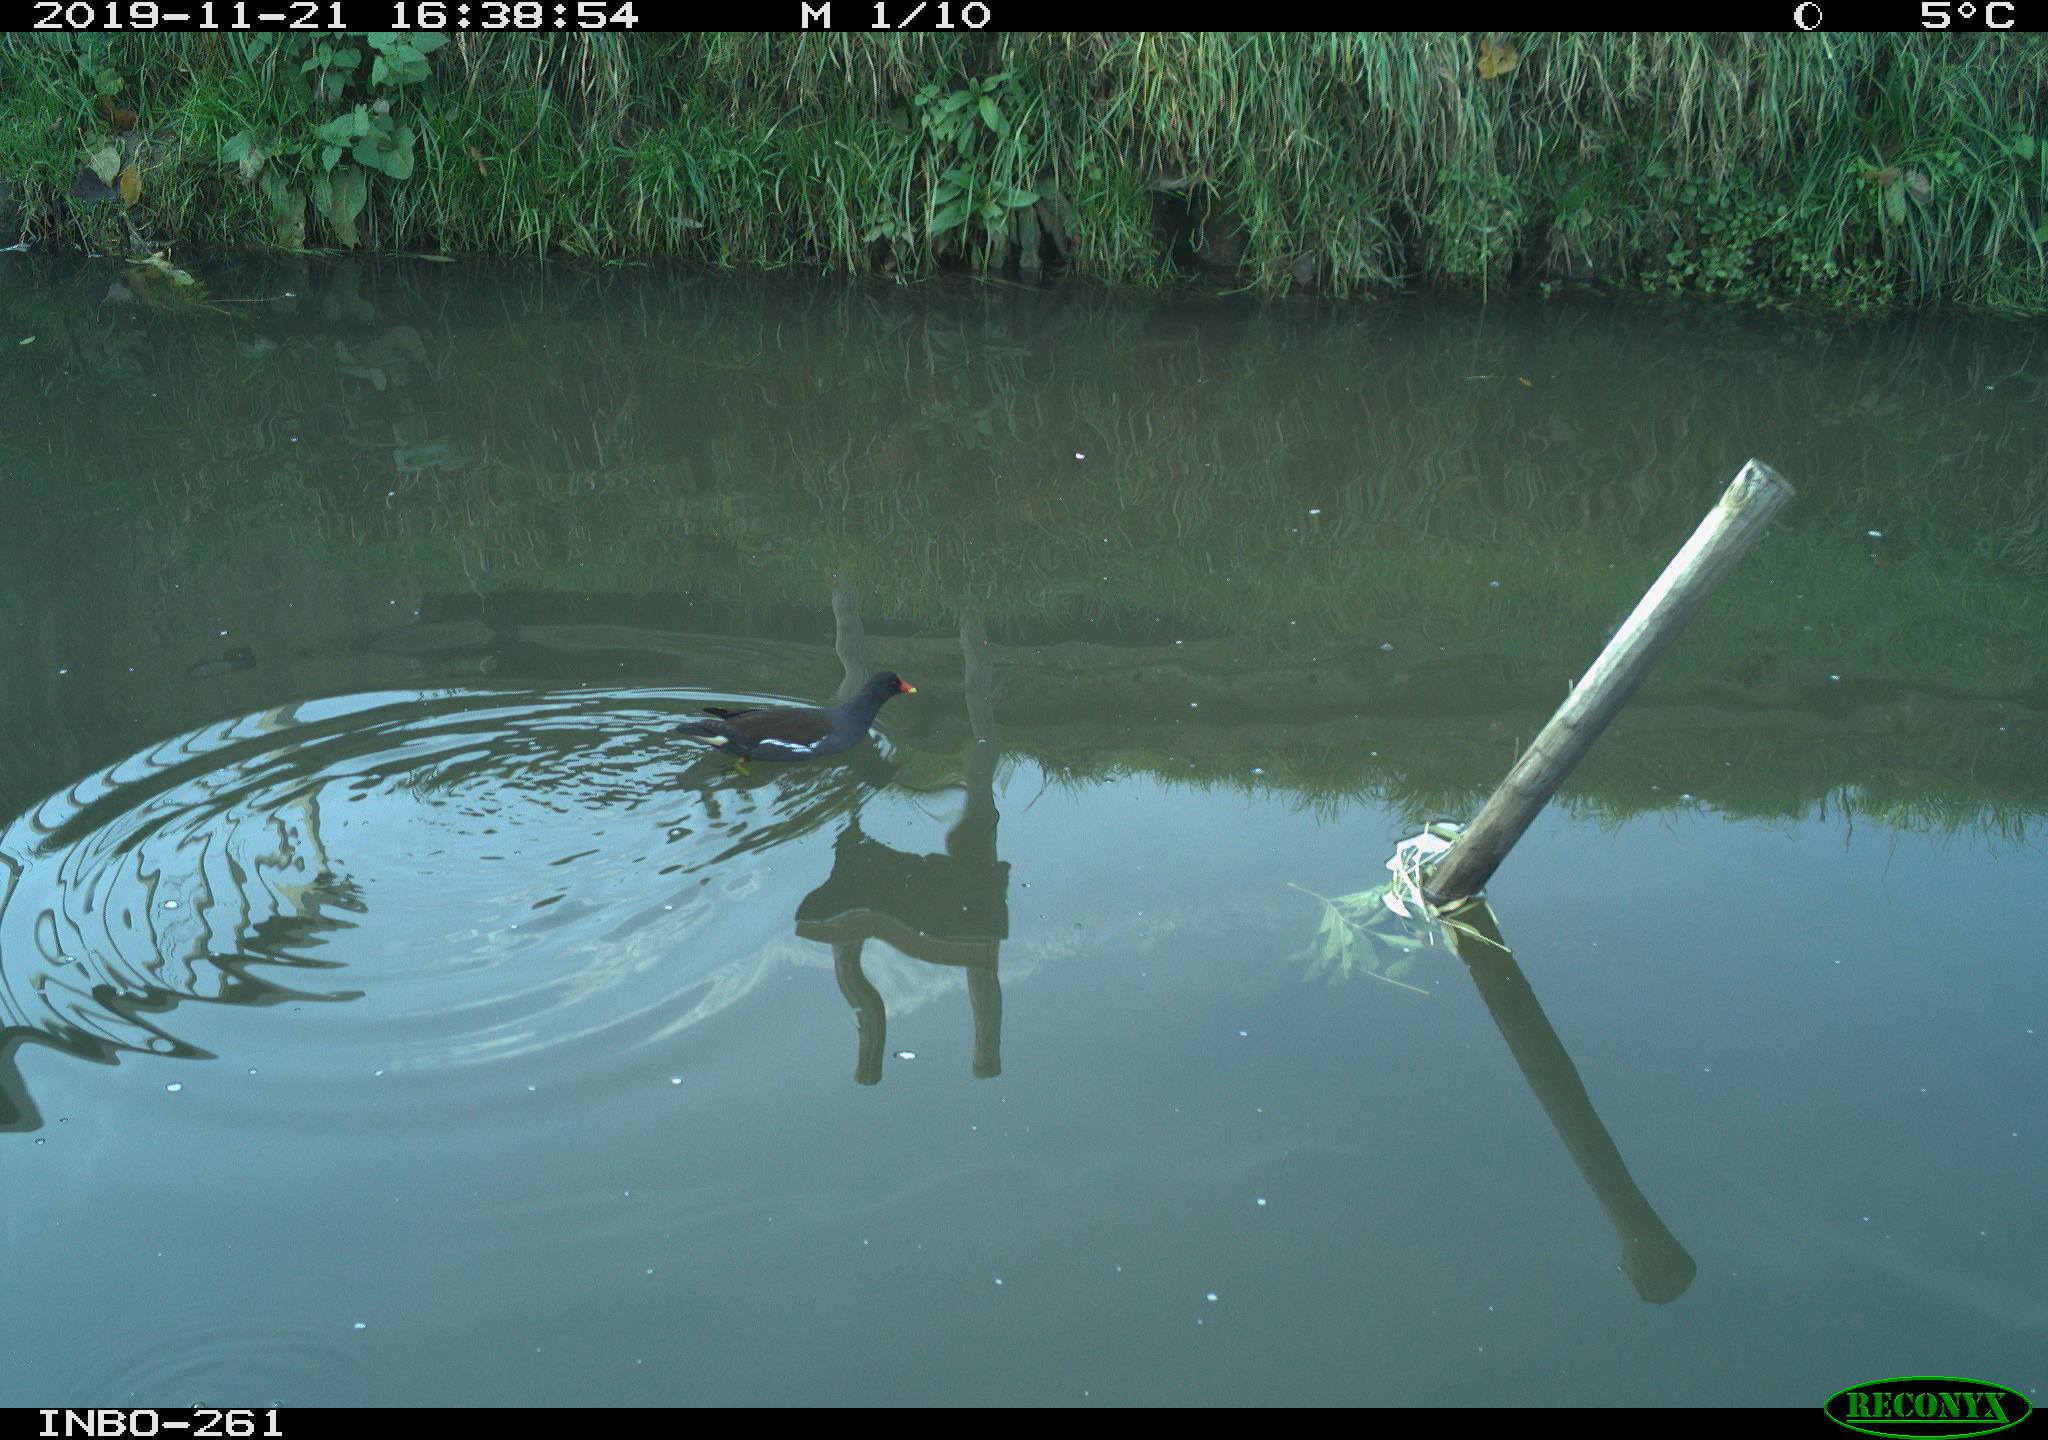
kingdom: Animalia
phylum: Chordata
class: Aves
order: Gruiformes
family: Rallidae
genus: Gallinula
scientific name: Gallinula chloropus
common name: Common moorhen
